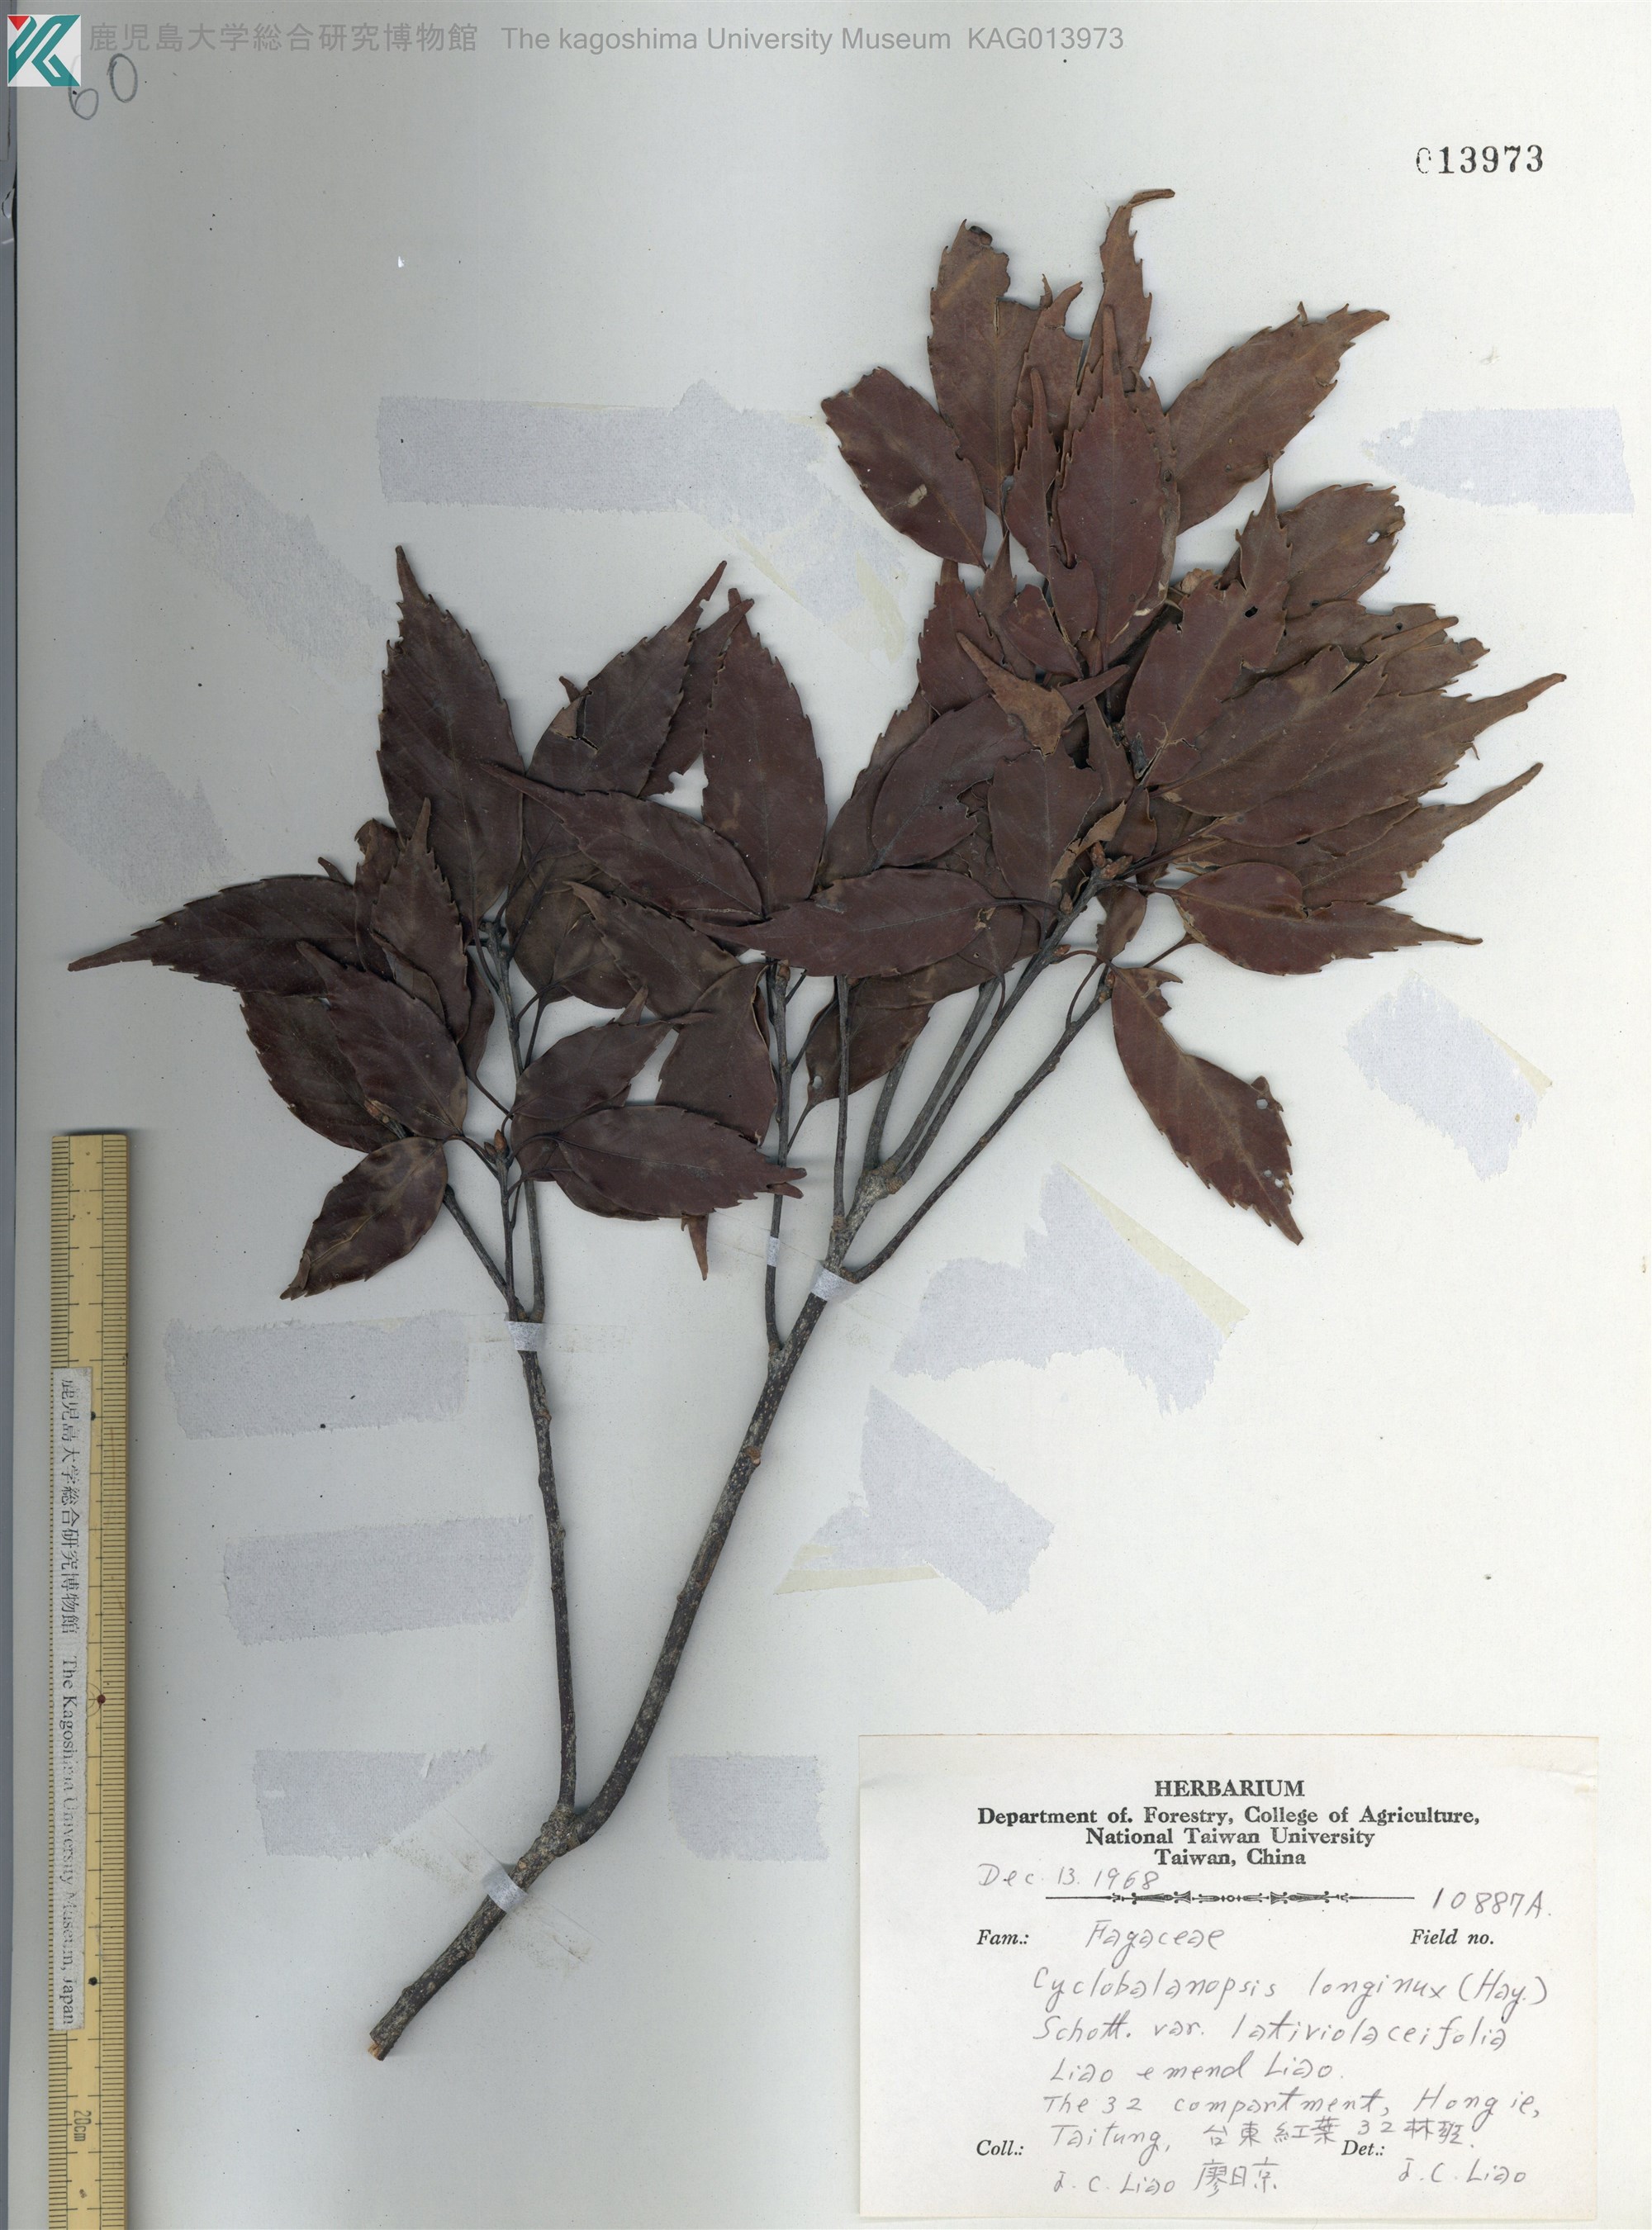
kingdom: Plantae
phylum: Tracheophyta
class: Magnoliopsida
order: Fagales
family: Fagaceae
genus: Quercus
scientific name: Quercus longinux
